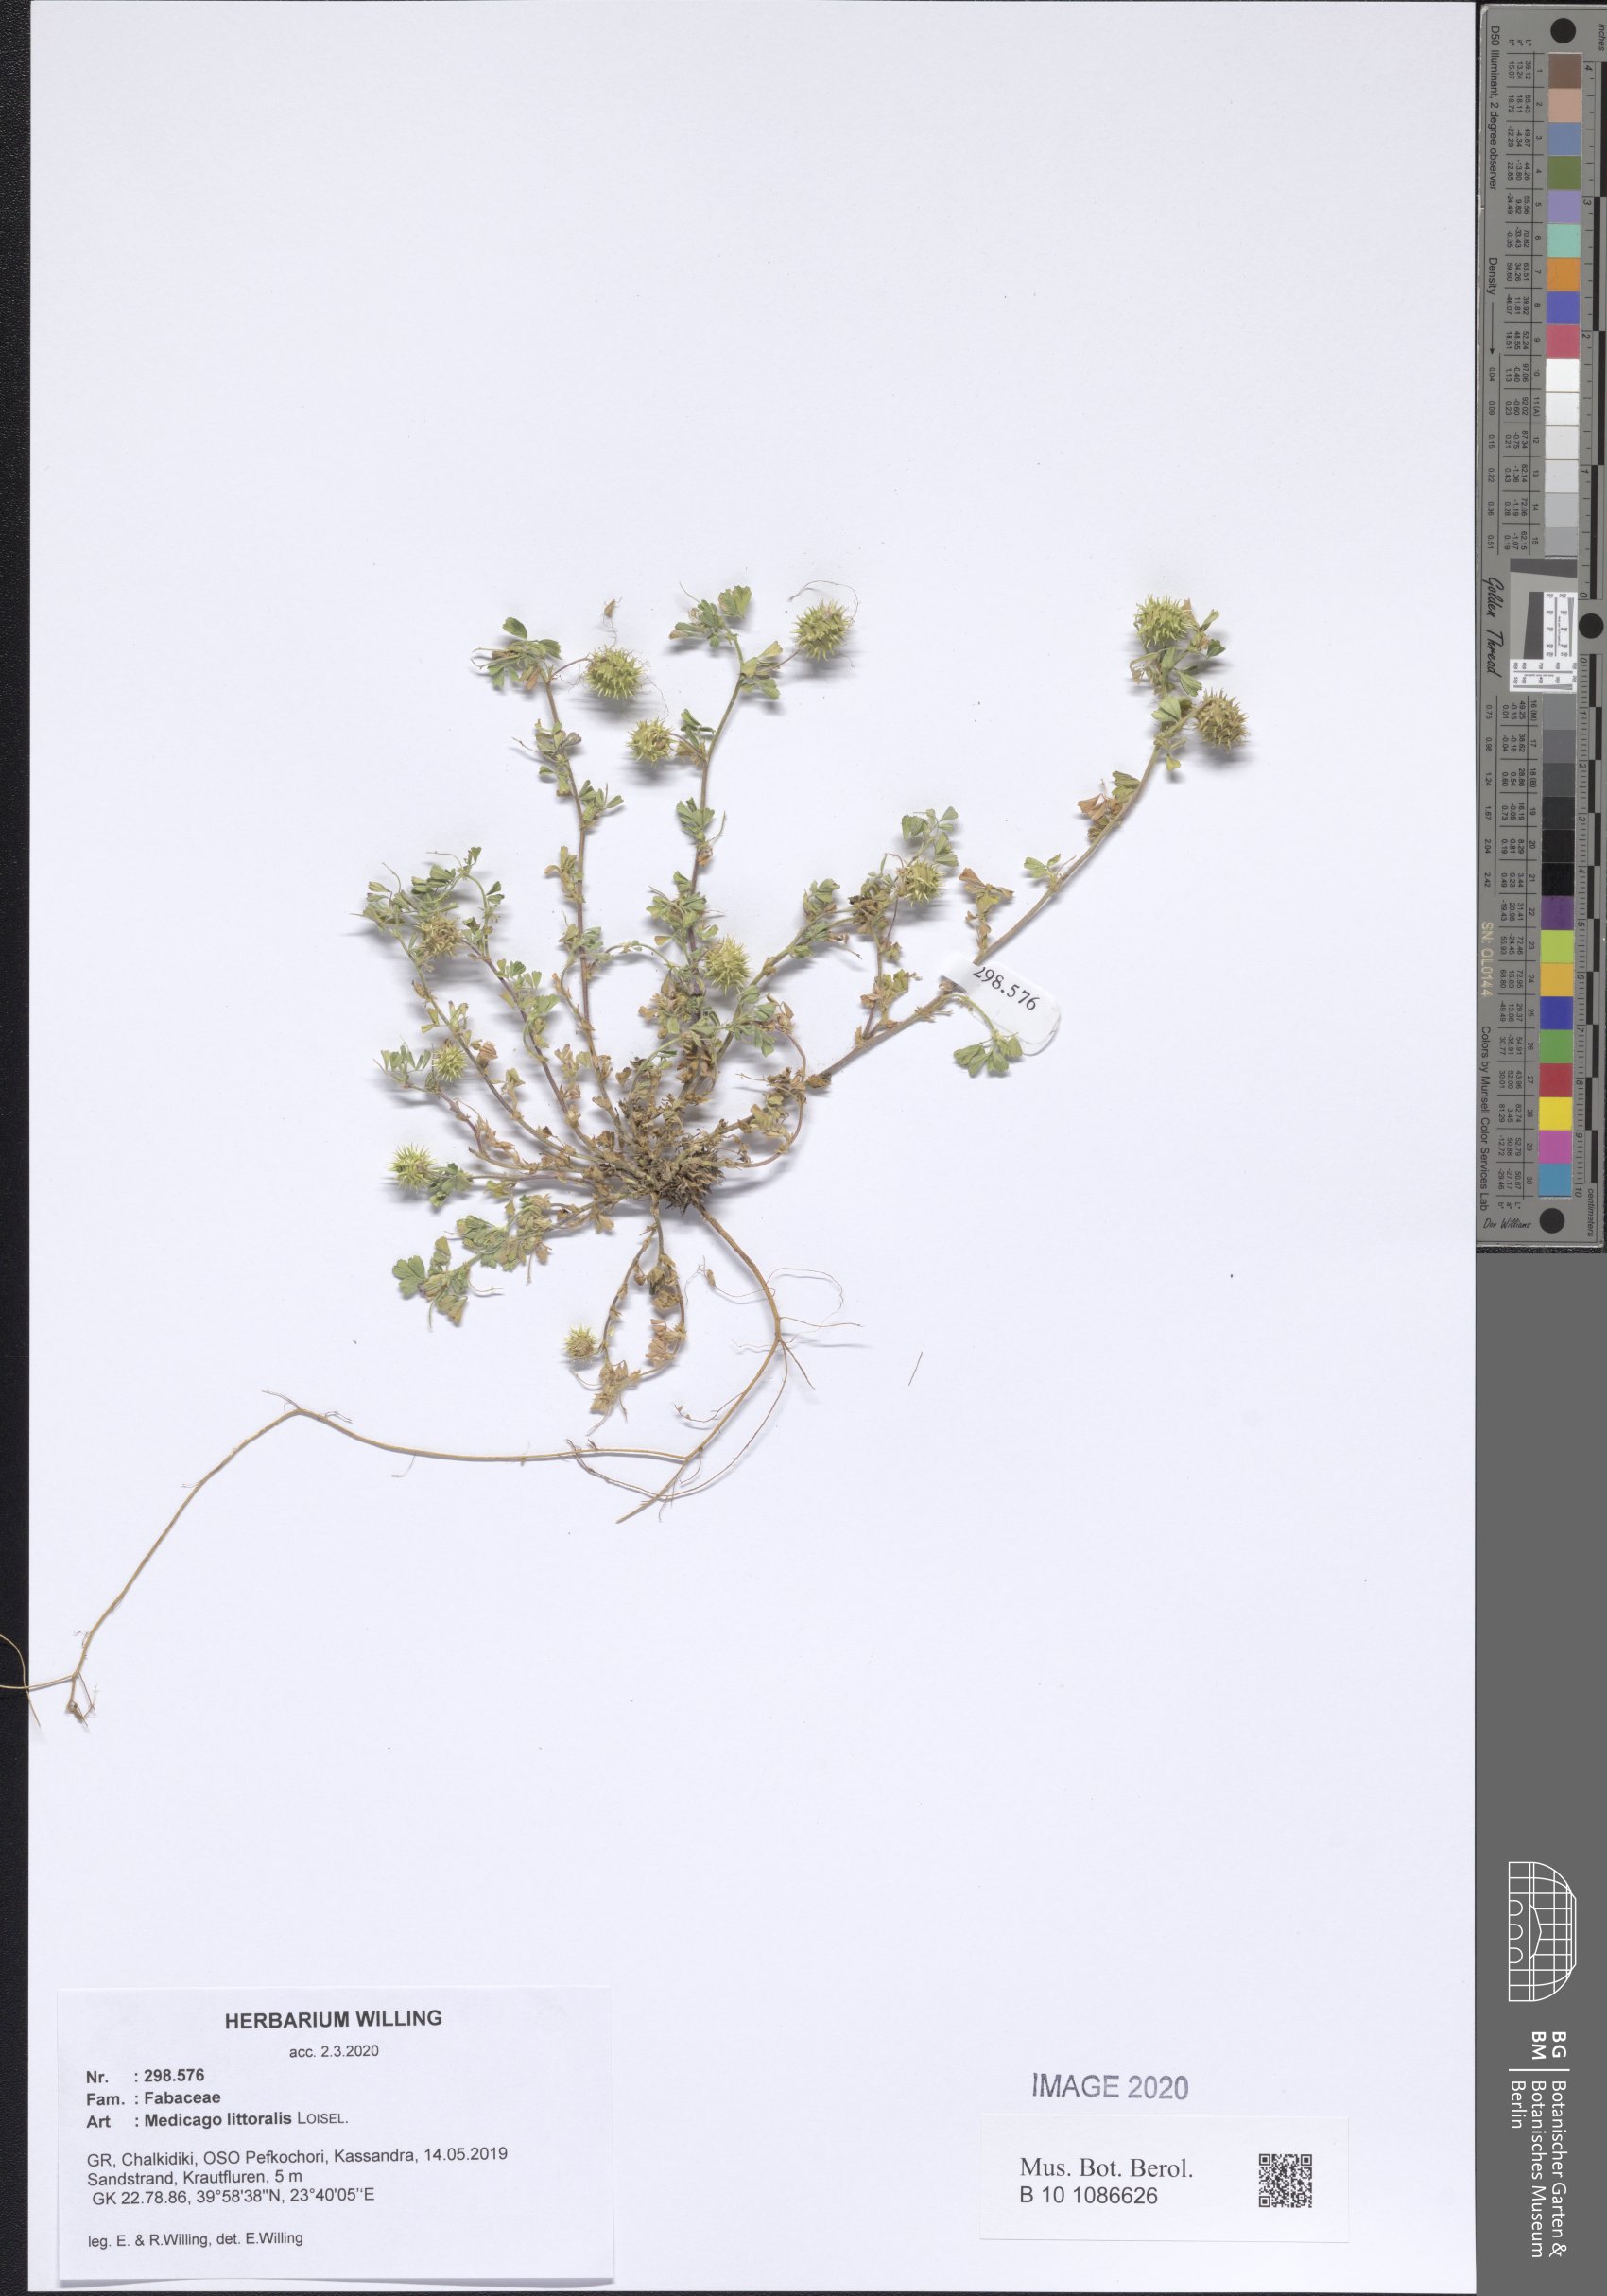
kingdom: Plantae
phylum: Tracheophyta
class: Magnoliopsida
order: Fabales
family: Fabaceae
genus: Medicago
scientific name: Medicago littoralis
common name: Shore medick
